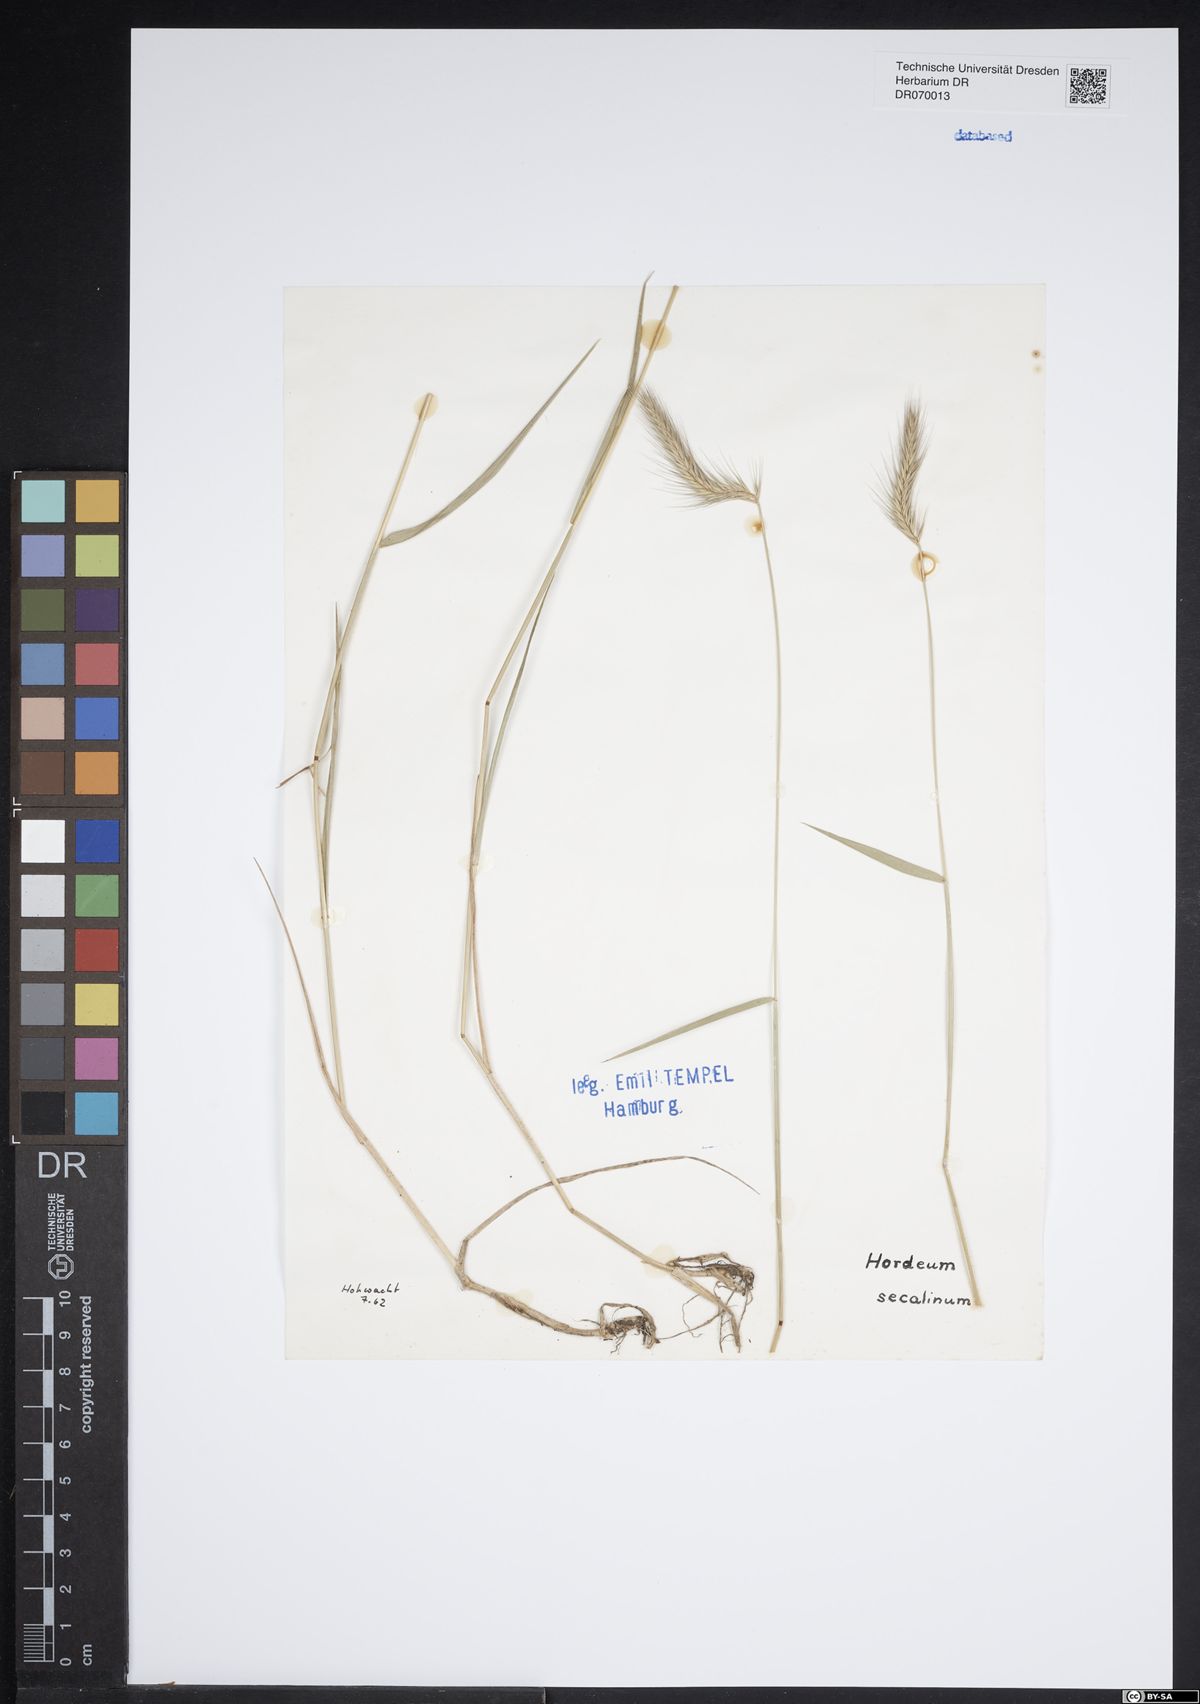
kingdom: Plantae
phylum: Tracheophyta
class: Liliopsida
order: Poales
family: Poaceae
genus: Hordeum
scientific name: Hordeum secalinum
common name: Meadow barley
